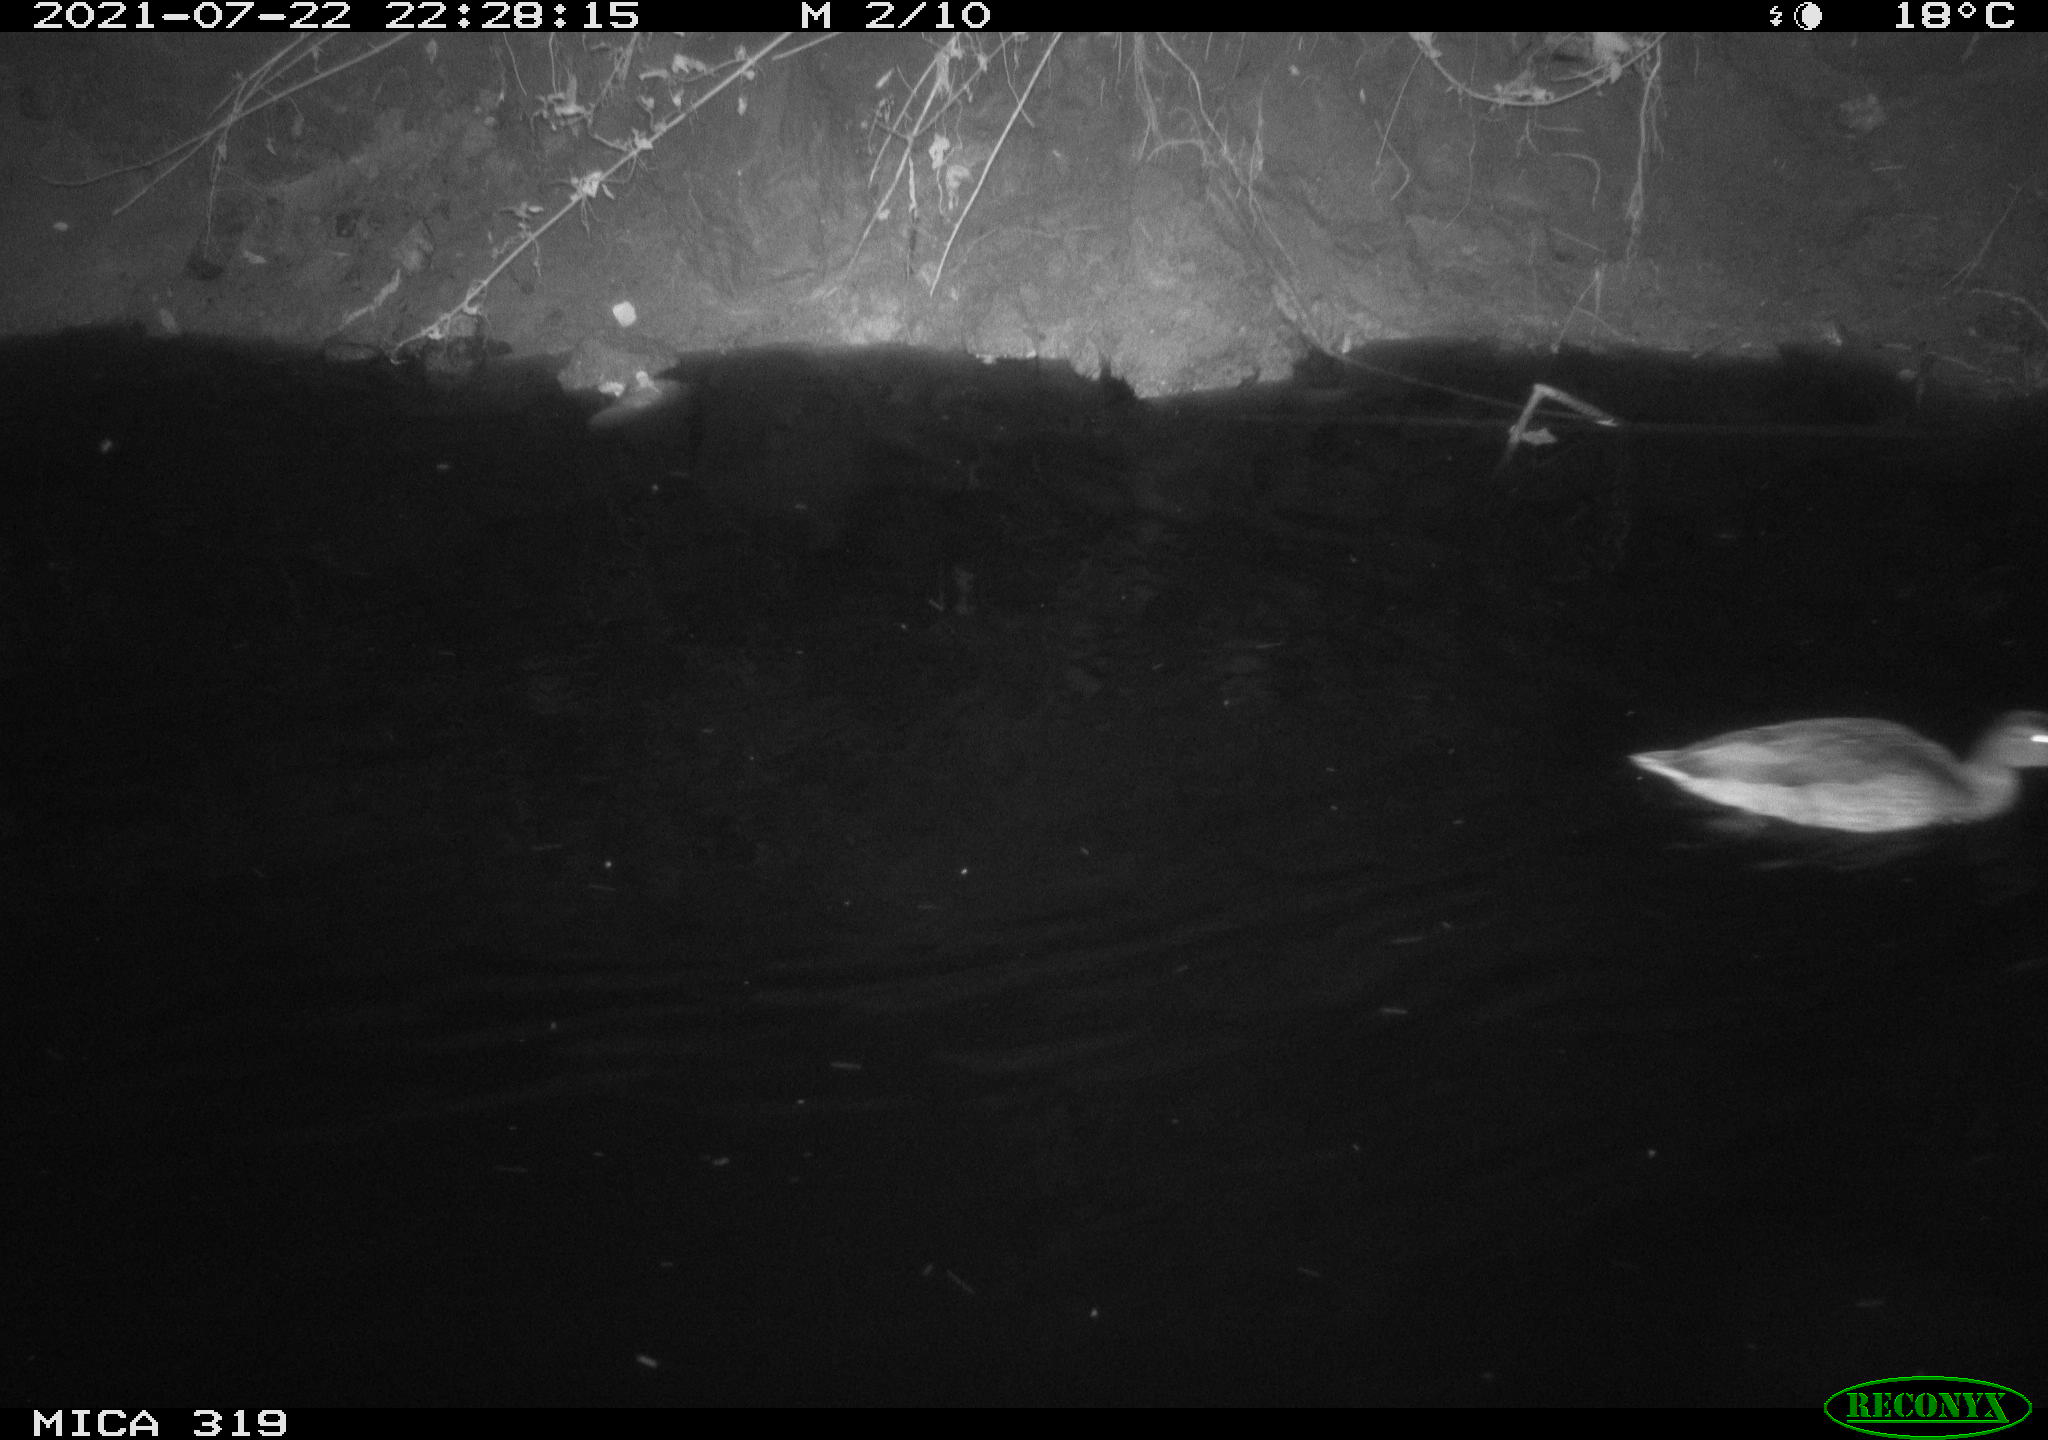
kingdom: Animalia
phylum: Chordata
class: Aves
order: Anseriformes
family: Anatidae
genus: Anas
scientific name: Anas platyrhynchos
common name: Mallard
